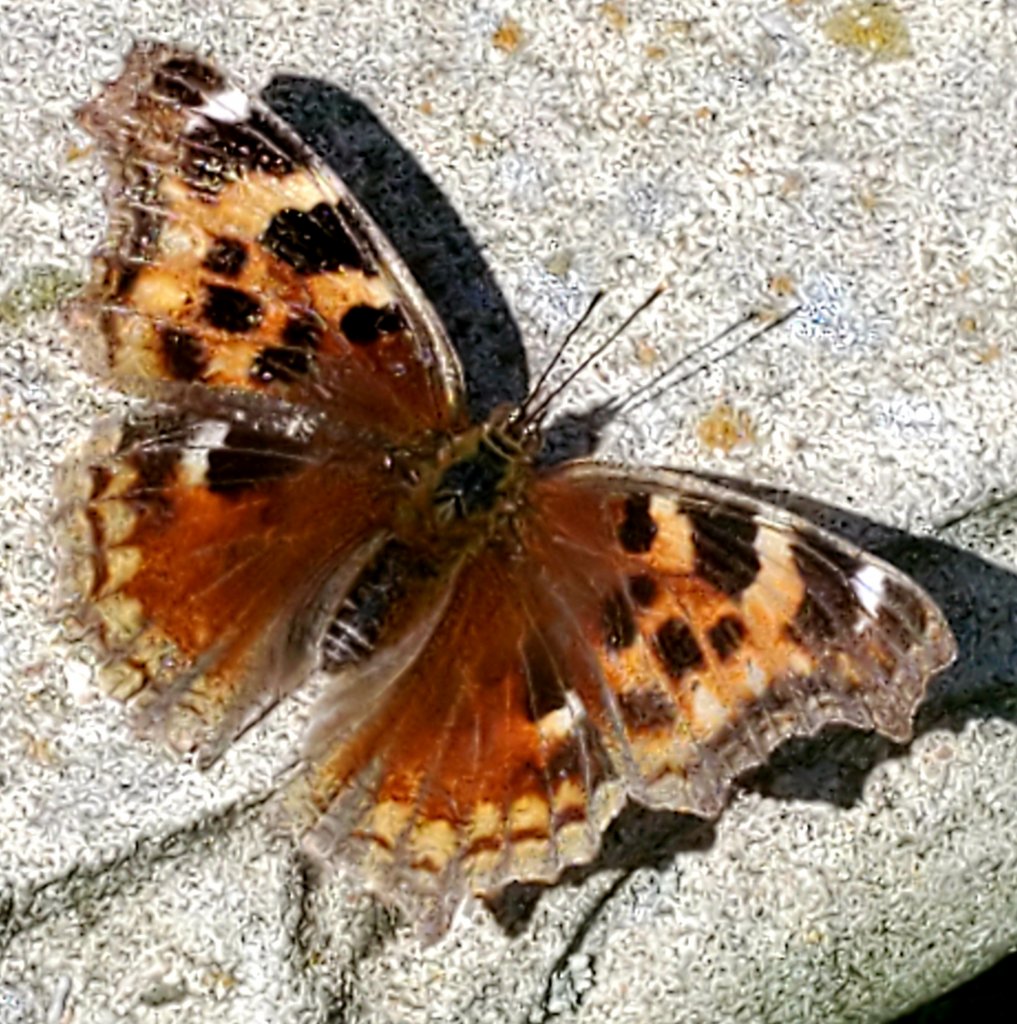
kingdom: Animalia
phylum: Arthropoda
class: Insecta
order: Lepidoptera
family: Nymphalidae
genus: Polygonia
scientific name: Polygonia vaualbum
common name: Compton Tortoiseshell
